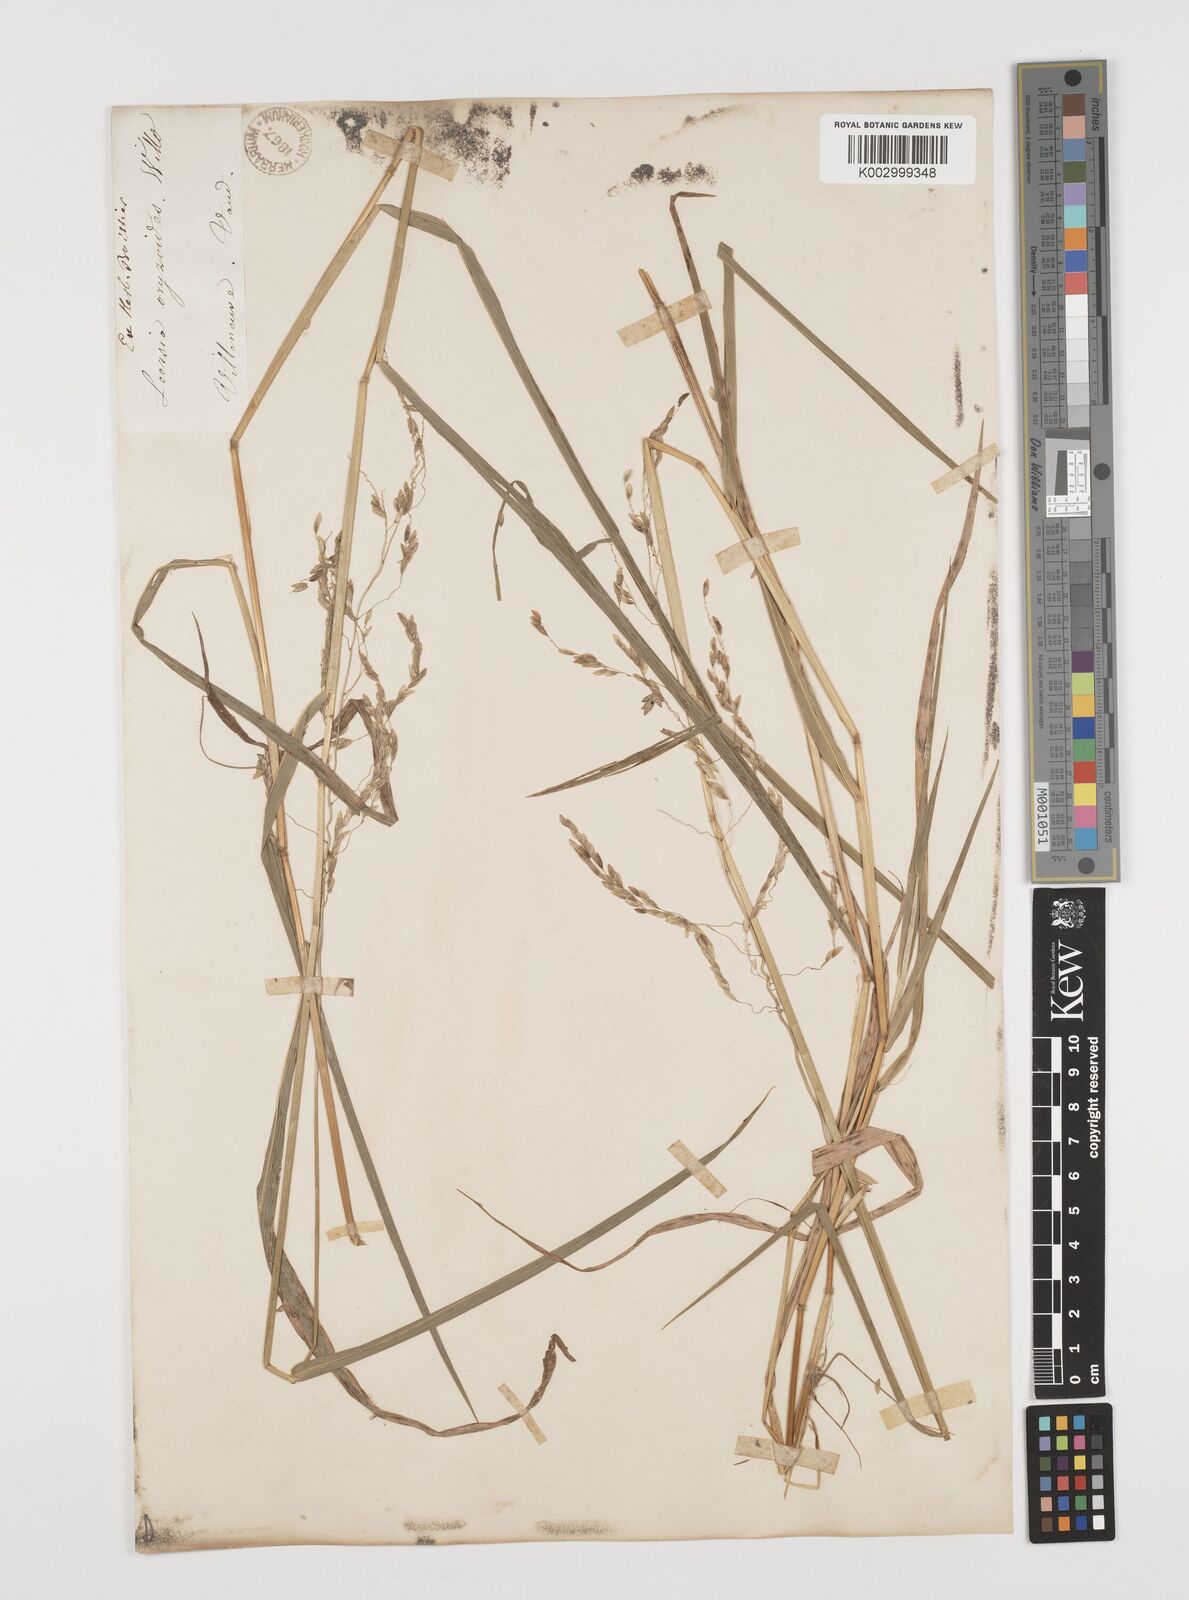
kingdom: Plantae
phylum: Tracheophyta
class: Liliopsida
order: Poales
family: Poaceae
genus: Leersia
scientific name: Leersia oryzoides
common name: Cut-grass
